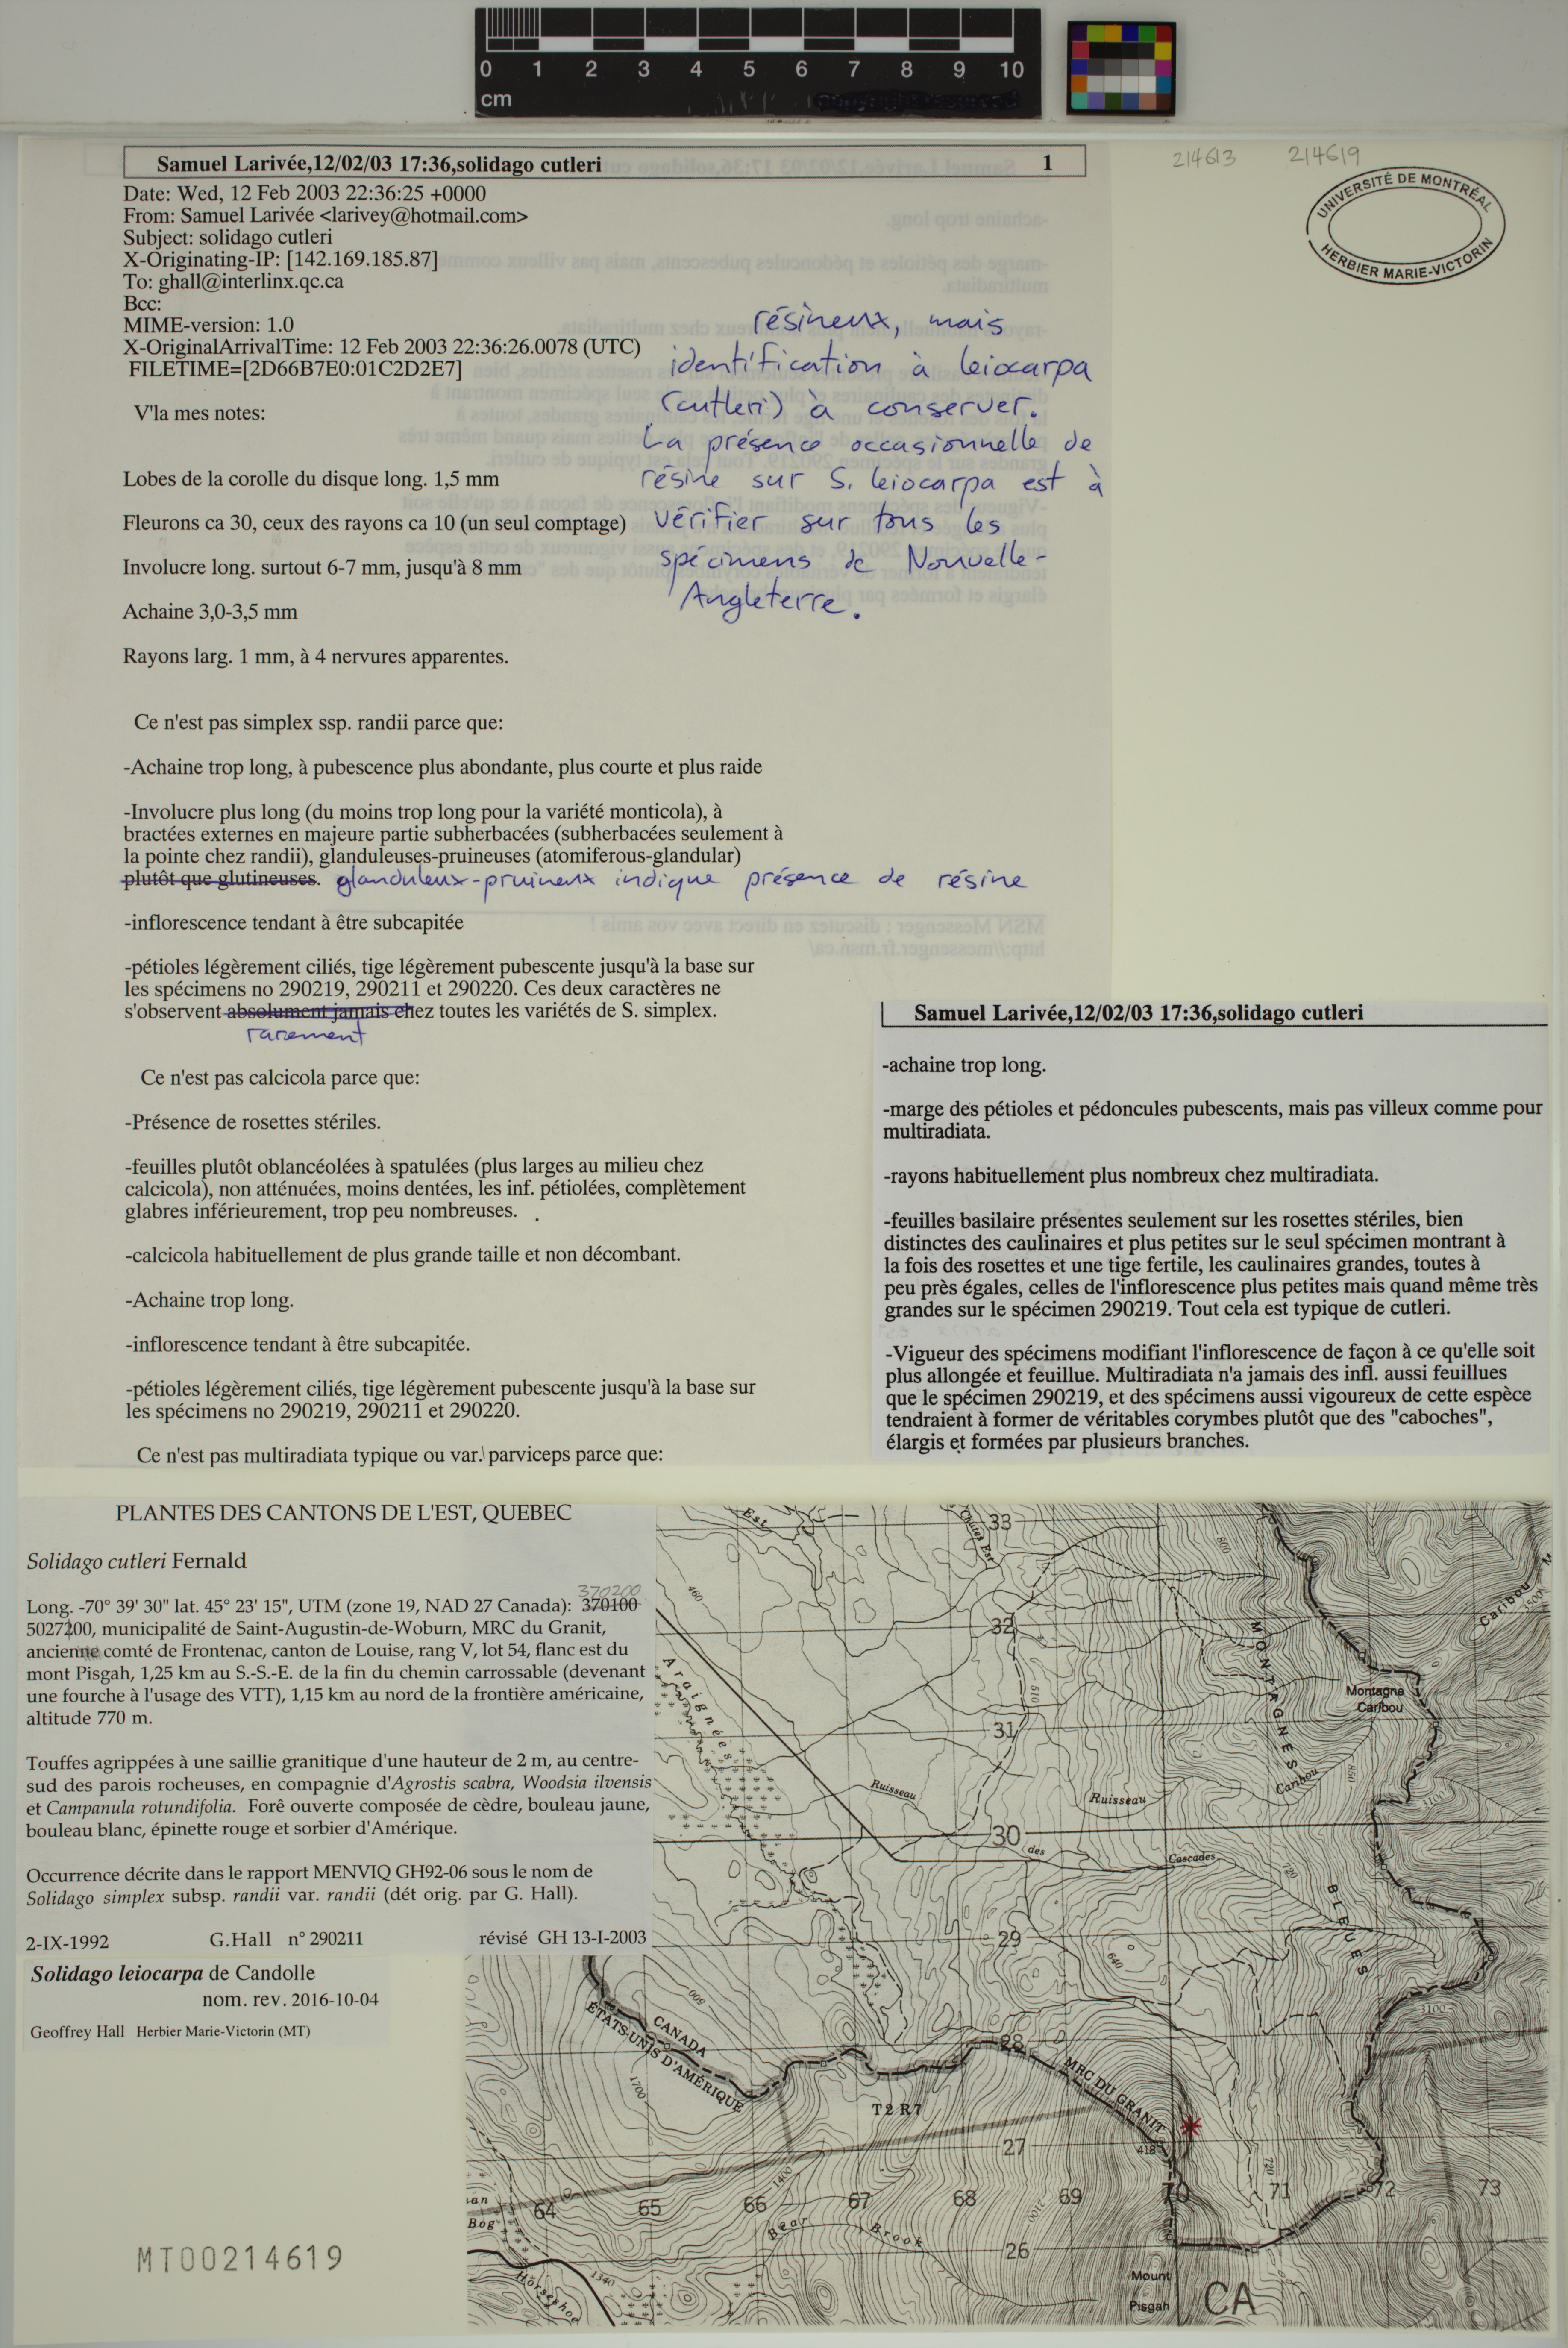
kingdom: Plantae
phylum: Tracheophyta
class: Magnoliopsida
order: Asterales
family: Asteraceae
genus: Solidago
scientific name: Solidago randii
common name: Rand's goldenrod
